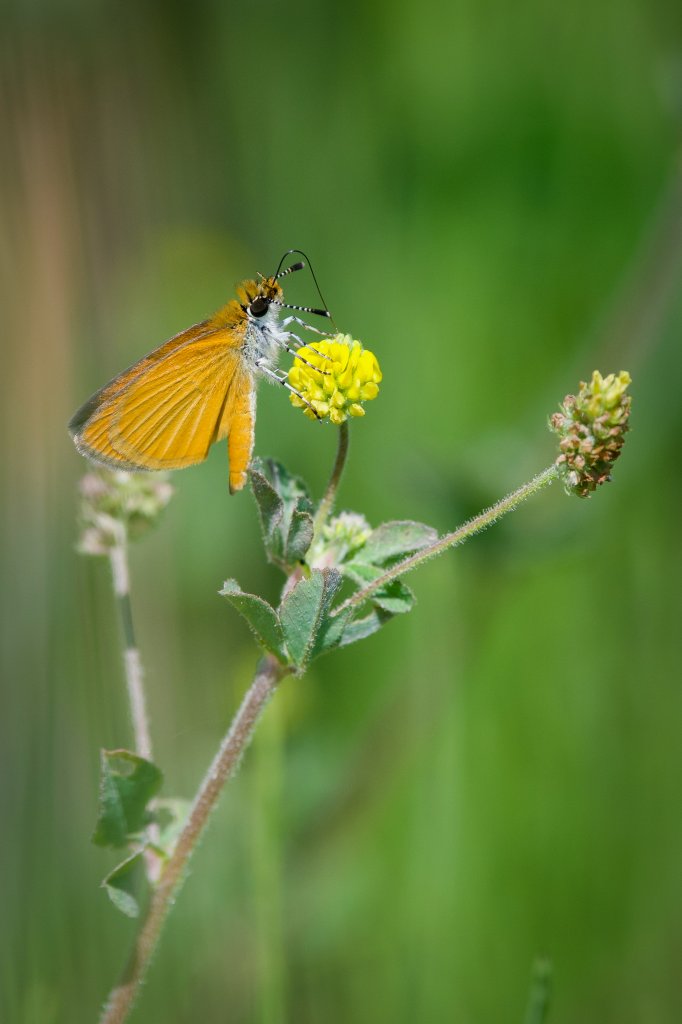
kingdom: Animalia
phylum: Arthropoda
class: Insecta
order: Lepidoptera
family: Hesperiidae
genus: Ancyloxypha
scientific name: Ancyloxypha numitor
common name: Least Skipper
